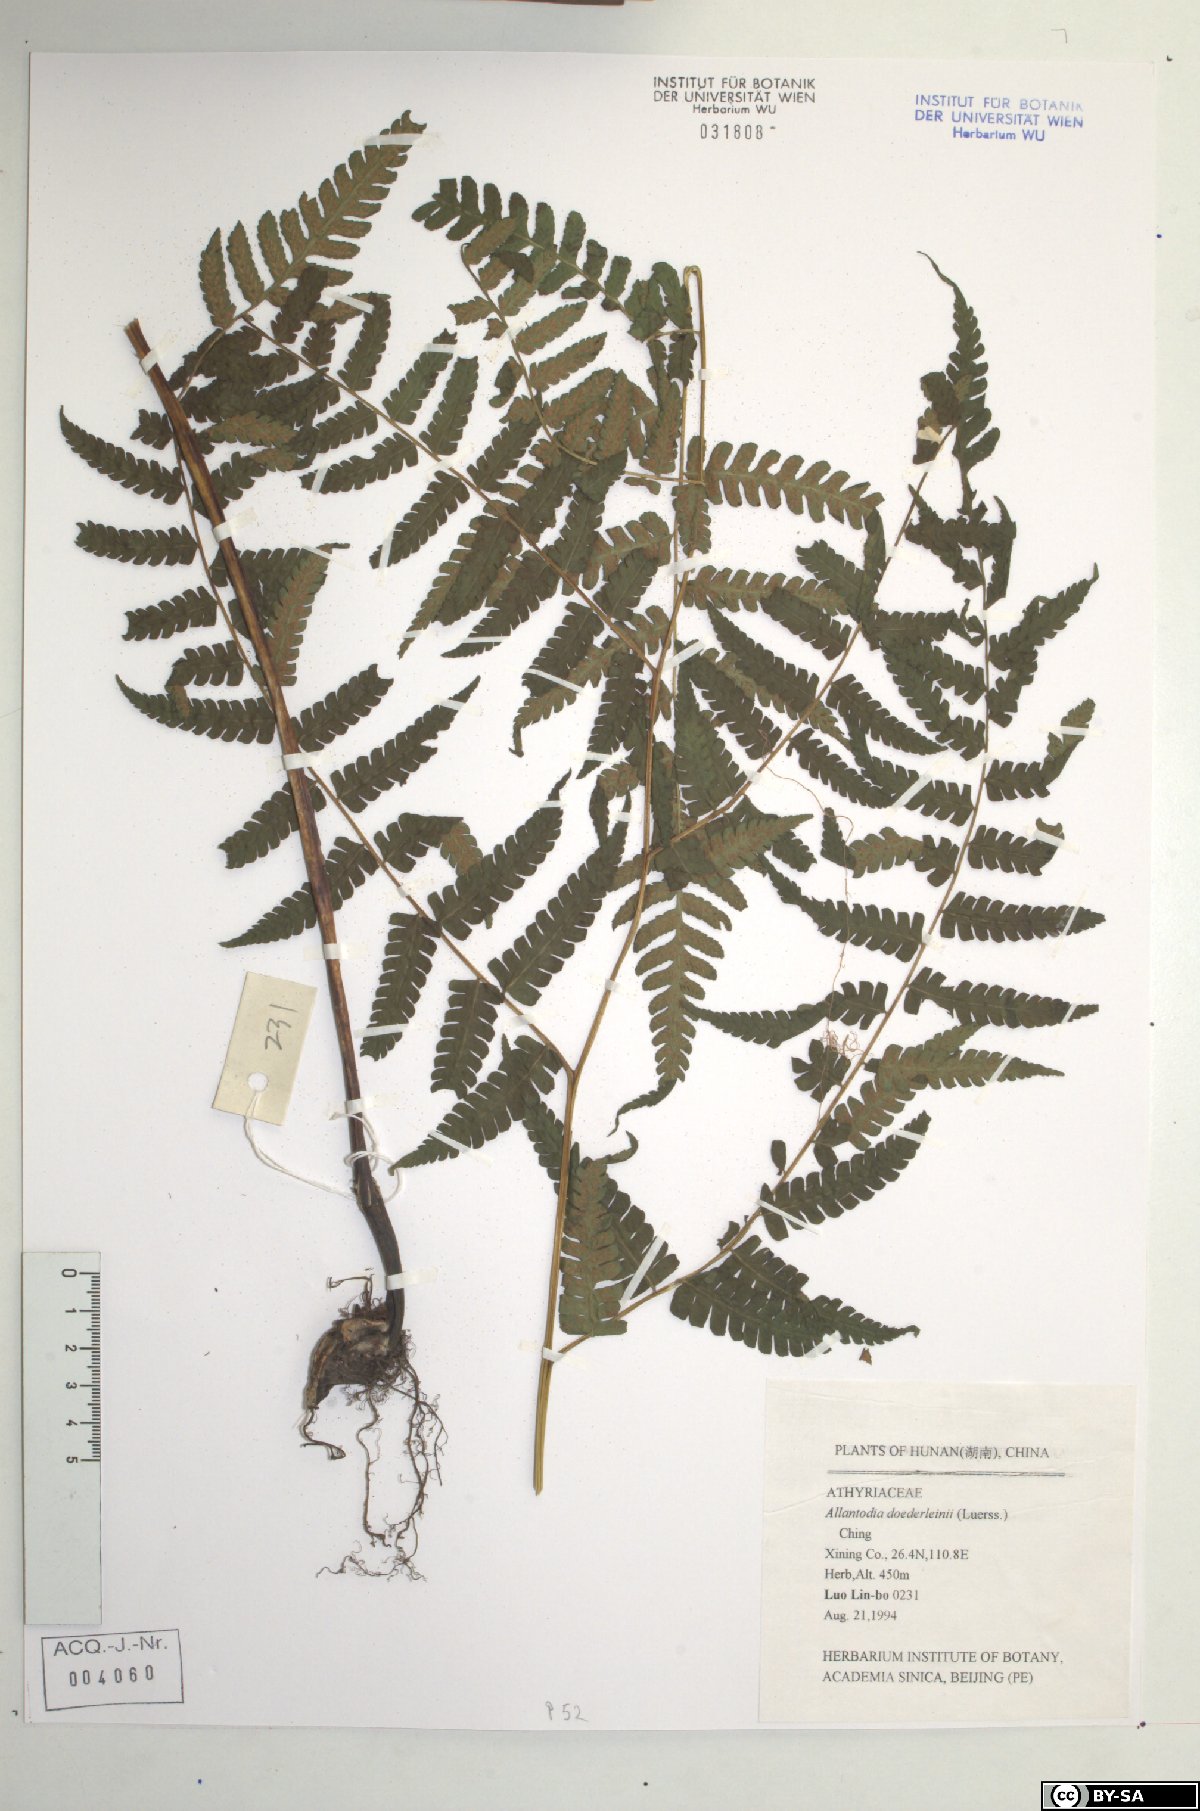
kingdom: Plantae
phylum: Tracheophyta
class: Polypodiopsida
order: Polypodiales
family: Athyriaceae
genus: Diplazium
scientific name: Diplazium doederleinii
